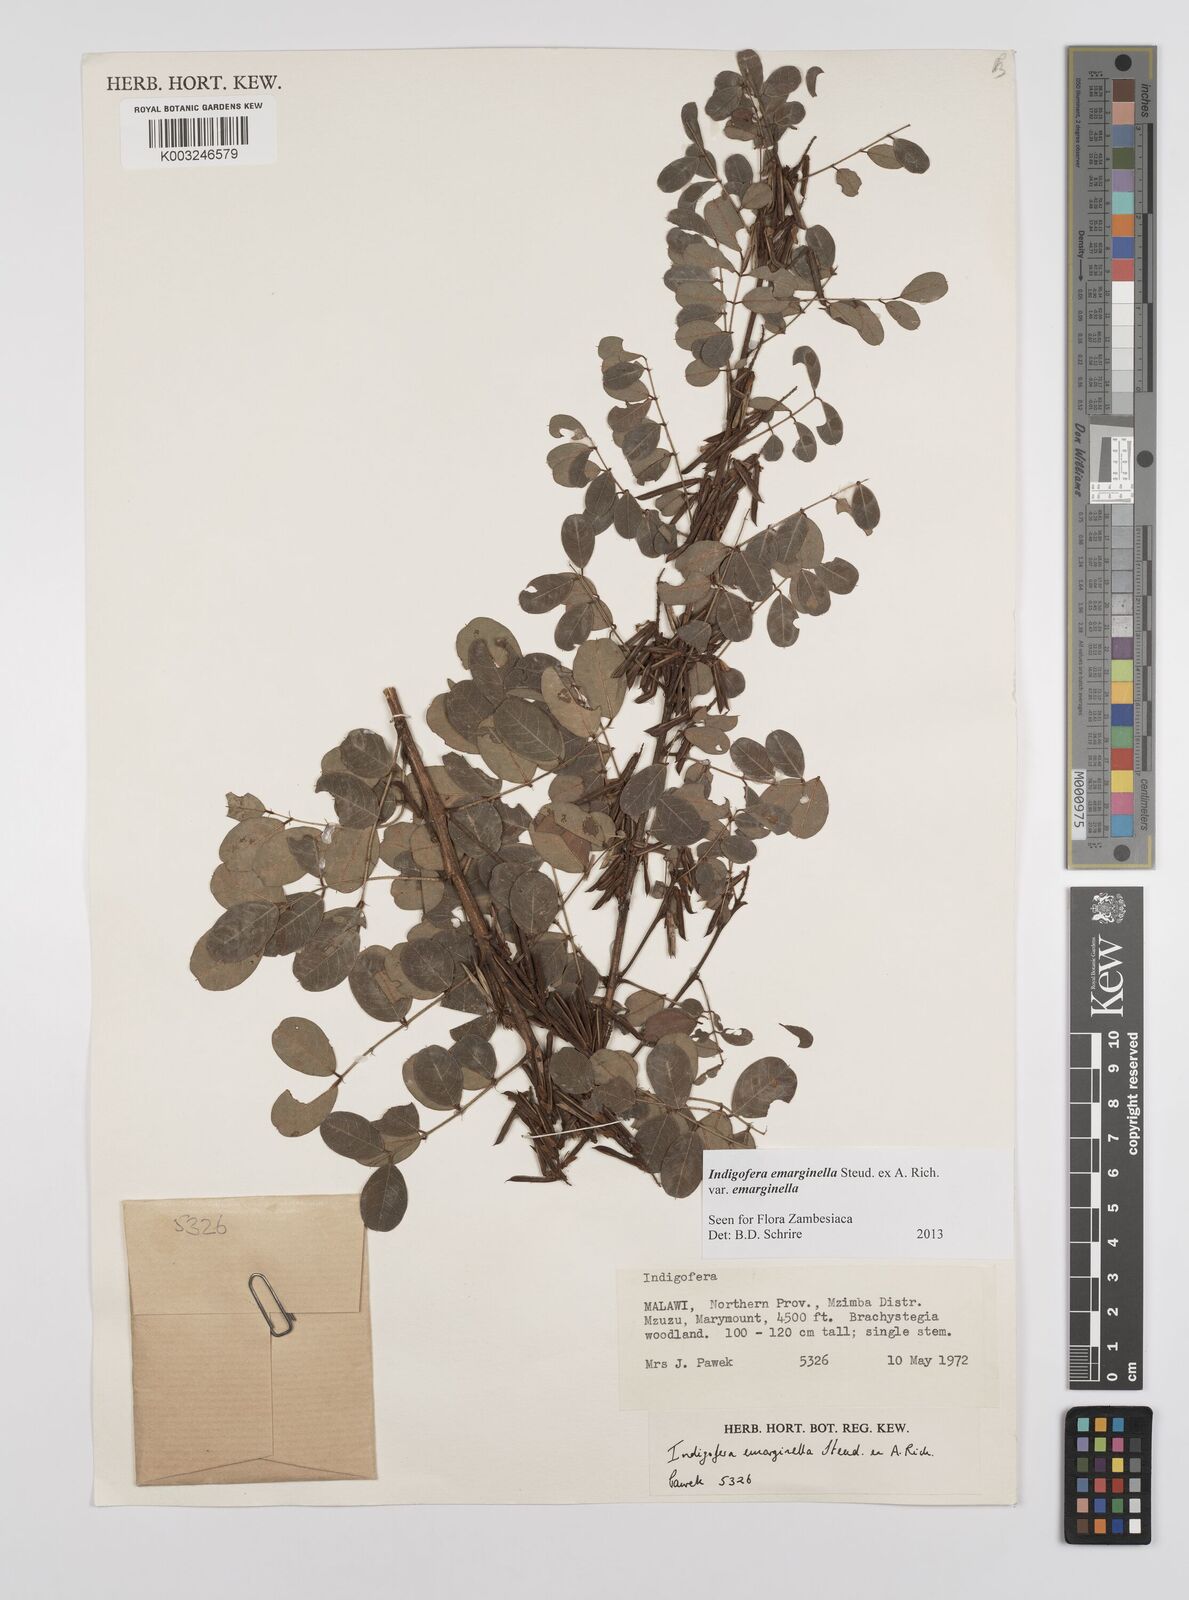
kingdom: Plantae
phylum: Tracheophyta
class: Magnoliopsida
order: Fabales
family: Fabaceae
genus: Indigofera
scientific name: Indigofera emarginella
